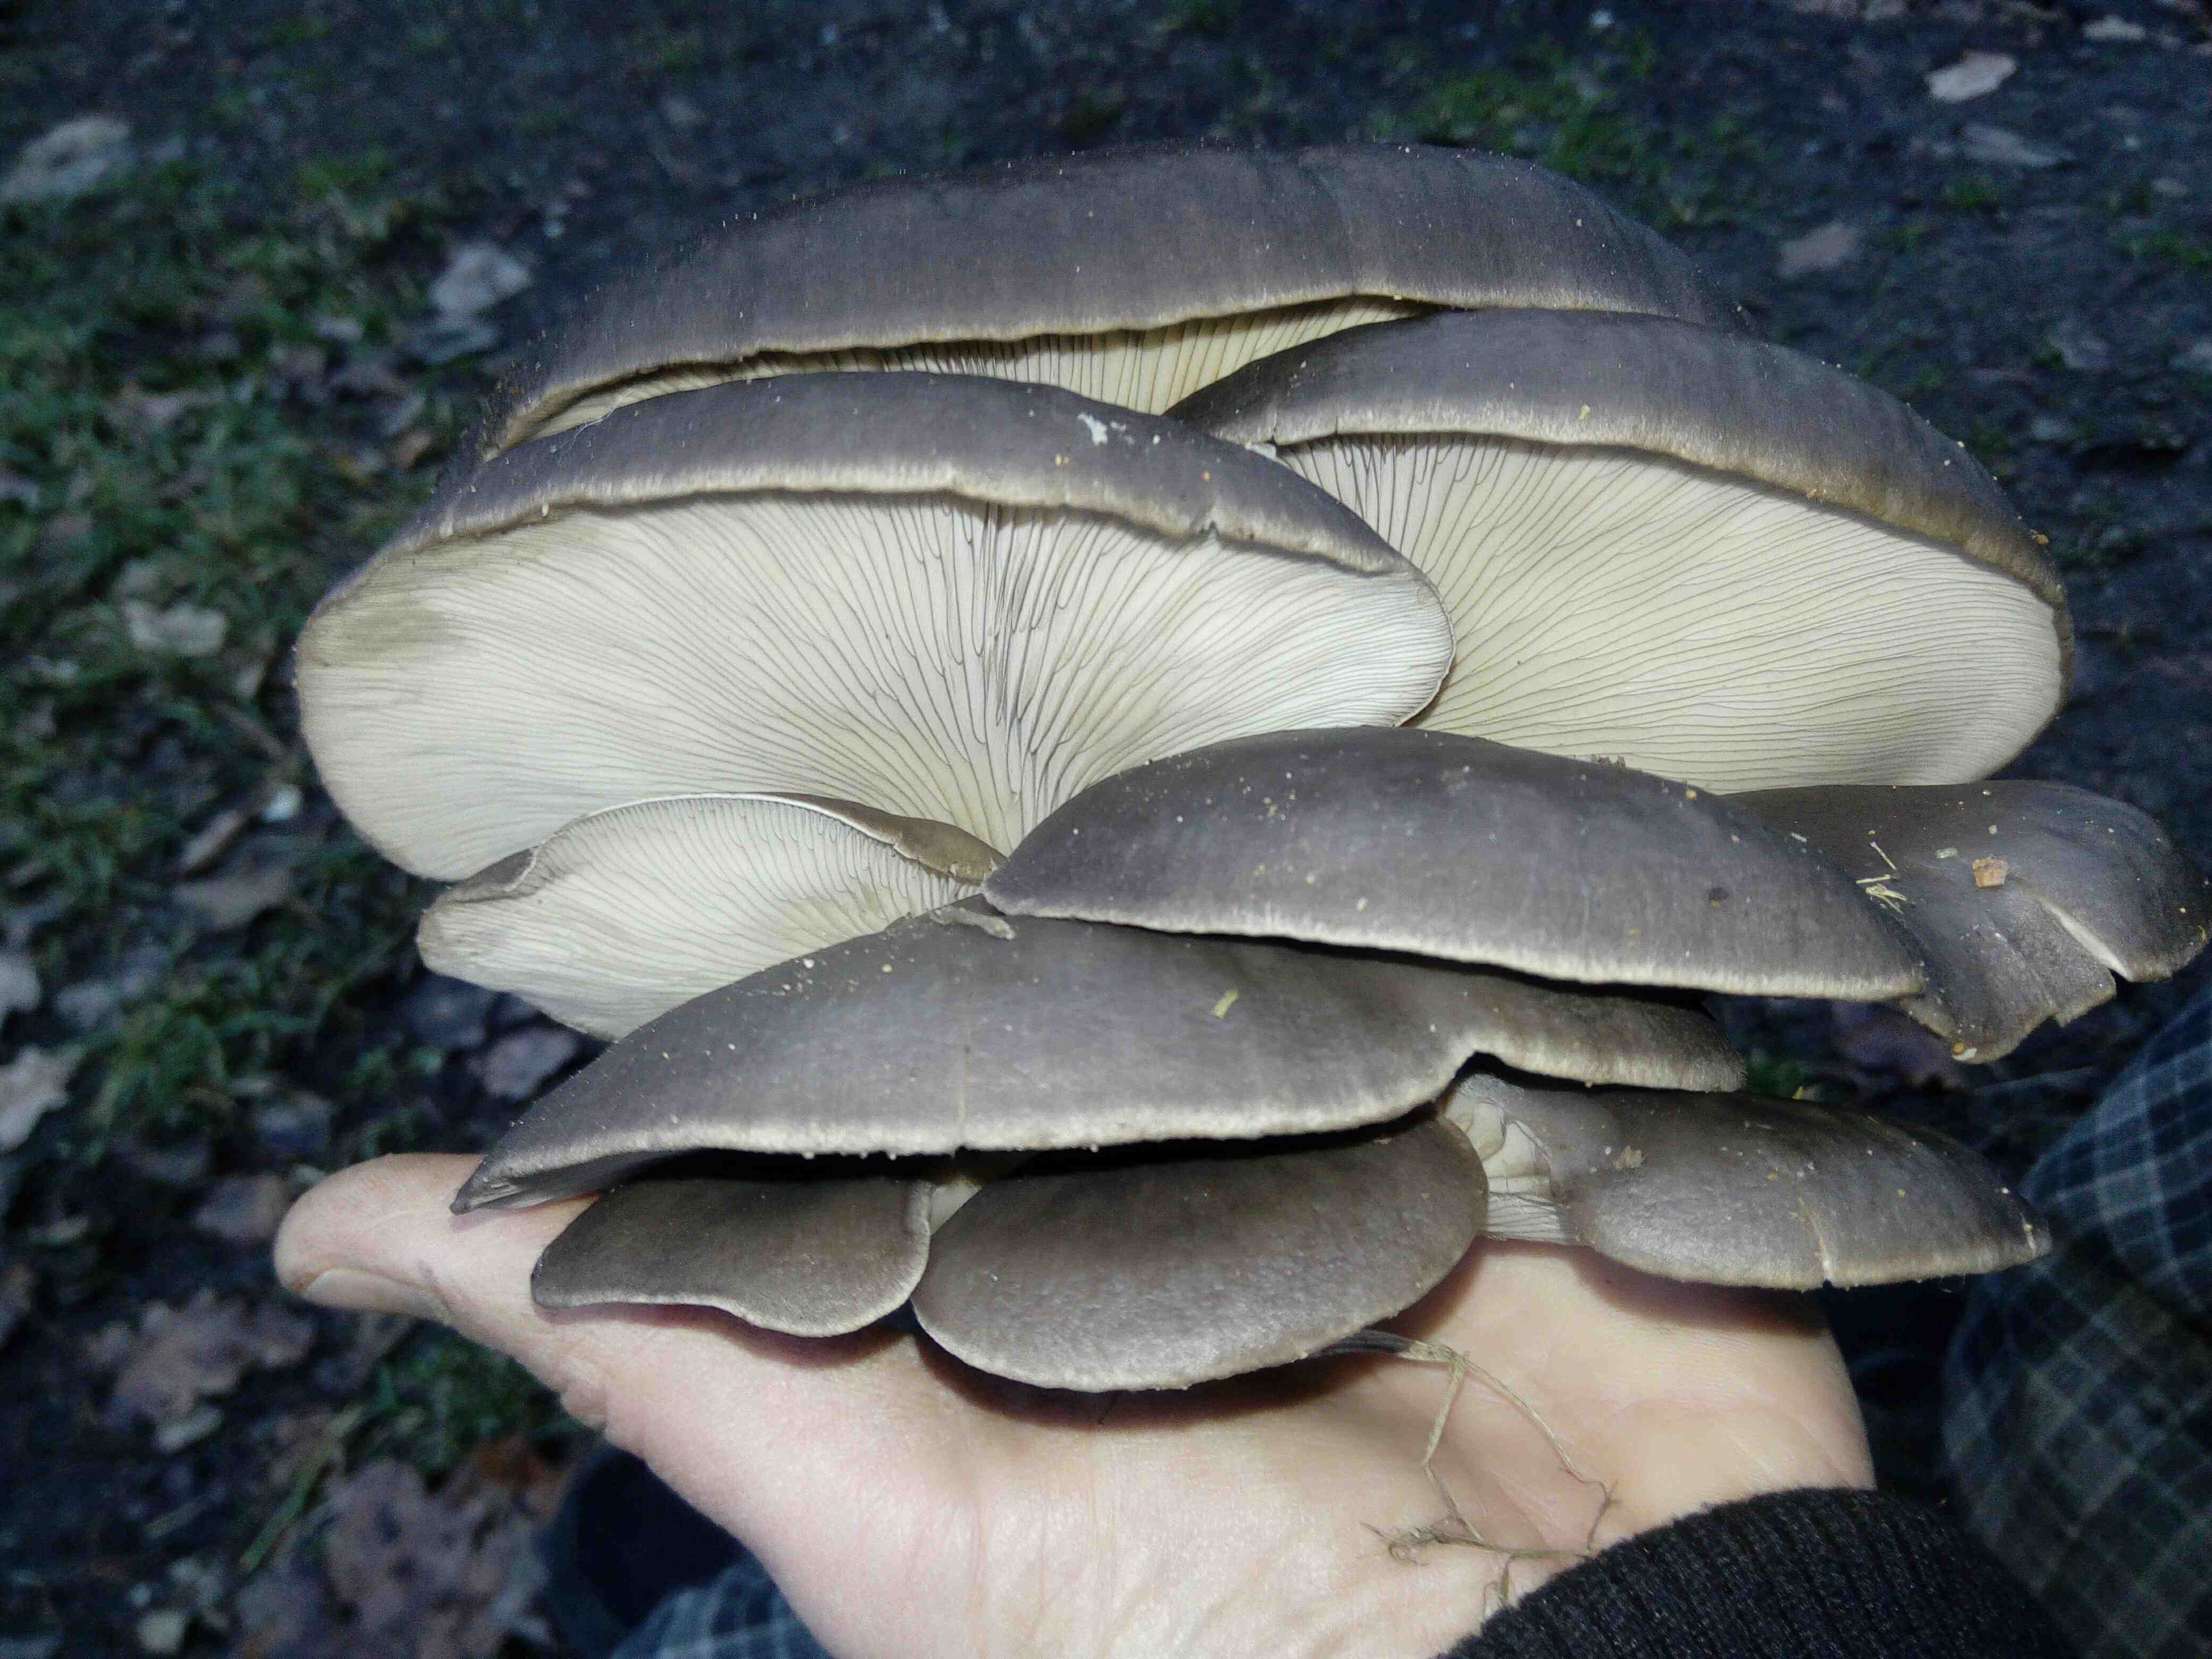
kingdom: Fungi
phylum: Basidiomycota
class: Agaricomycetes
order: Agaricales
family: Pleurotaceae
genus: Pleurotus
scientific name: Pleurotus ostreatus
